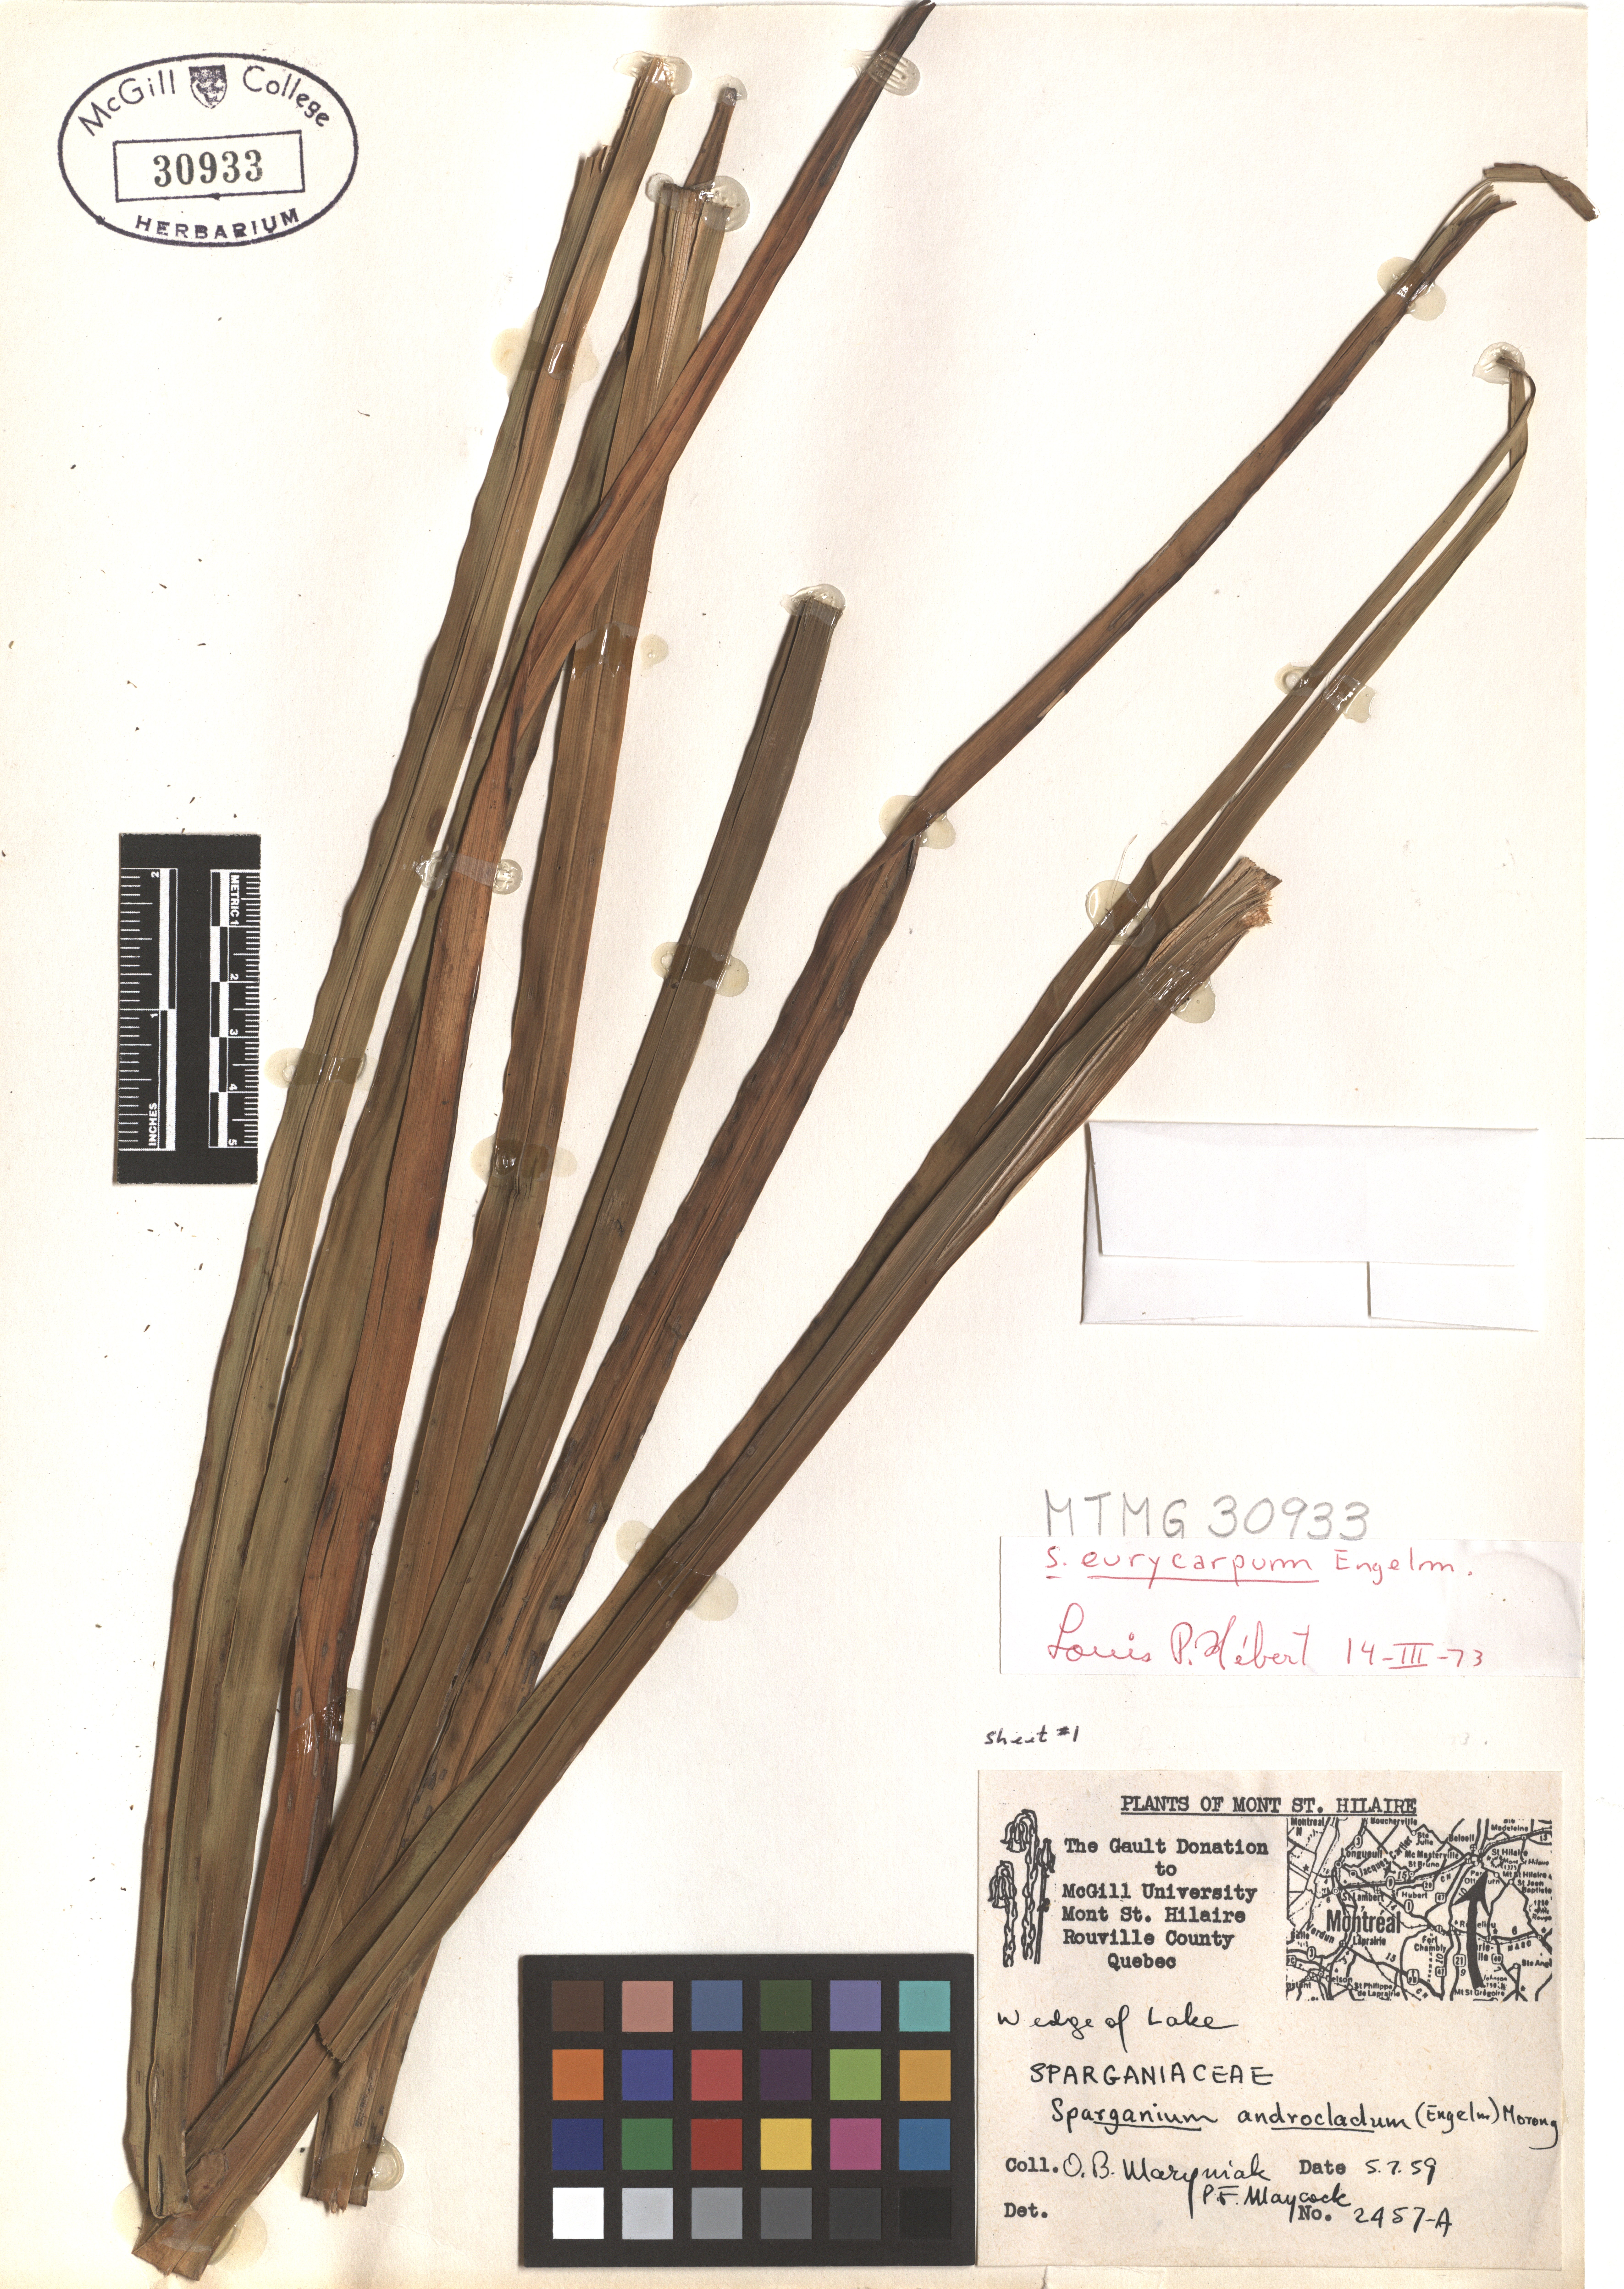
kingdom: Plantae
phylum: Tracheophyta
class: Liliopsida
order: Poales
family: Typhaceae
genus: Sparganium
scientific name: Sparganium eurycarpum
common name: Broad-fruited burreed
